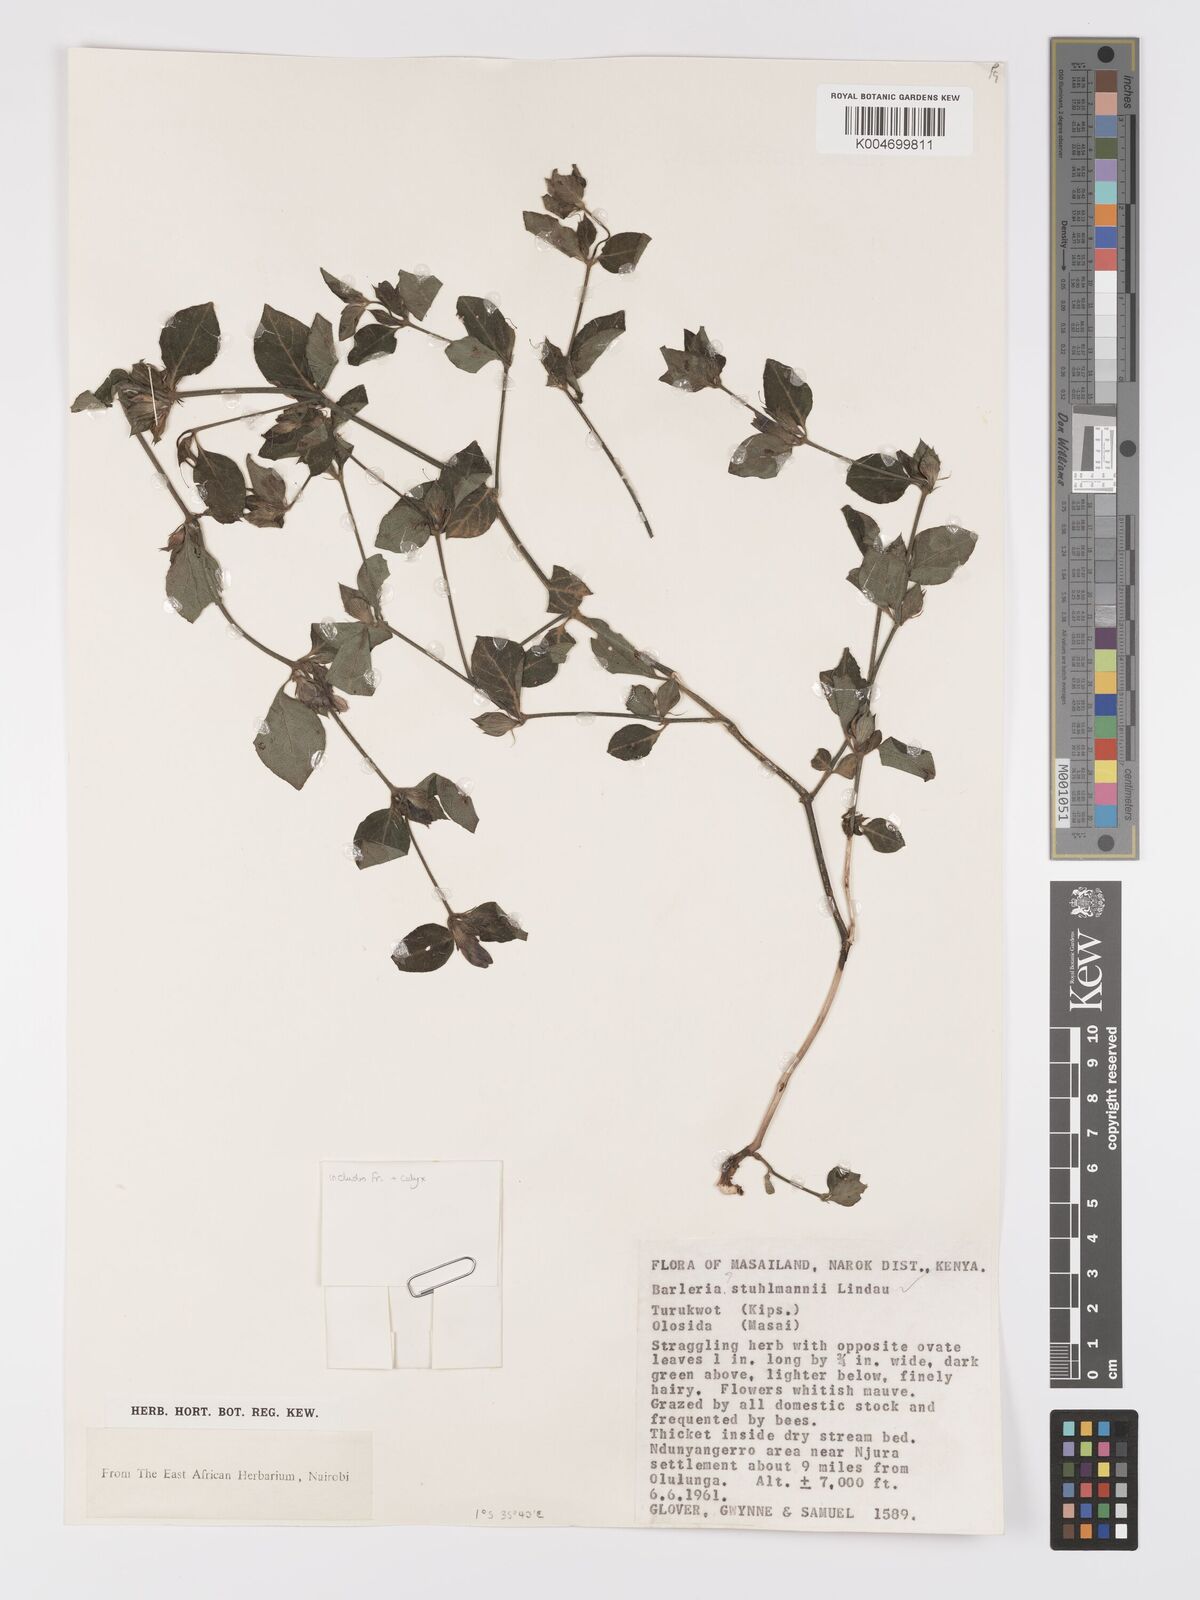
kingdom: Plantae
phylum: Tracheophyta
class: Magnoliopsida
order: Lamiales
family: Acanthaceae
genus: Barleria
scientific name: Barleria ventricosa
